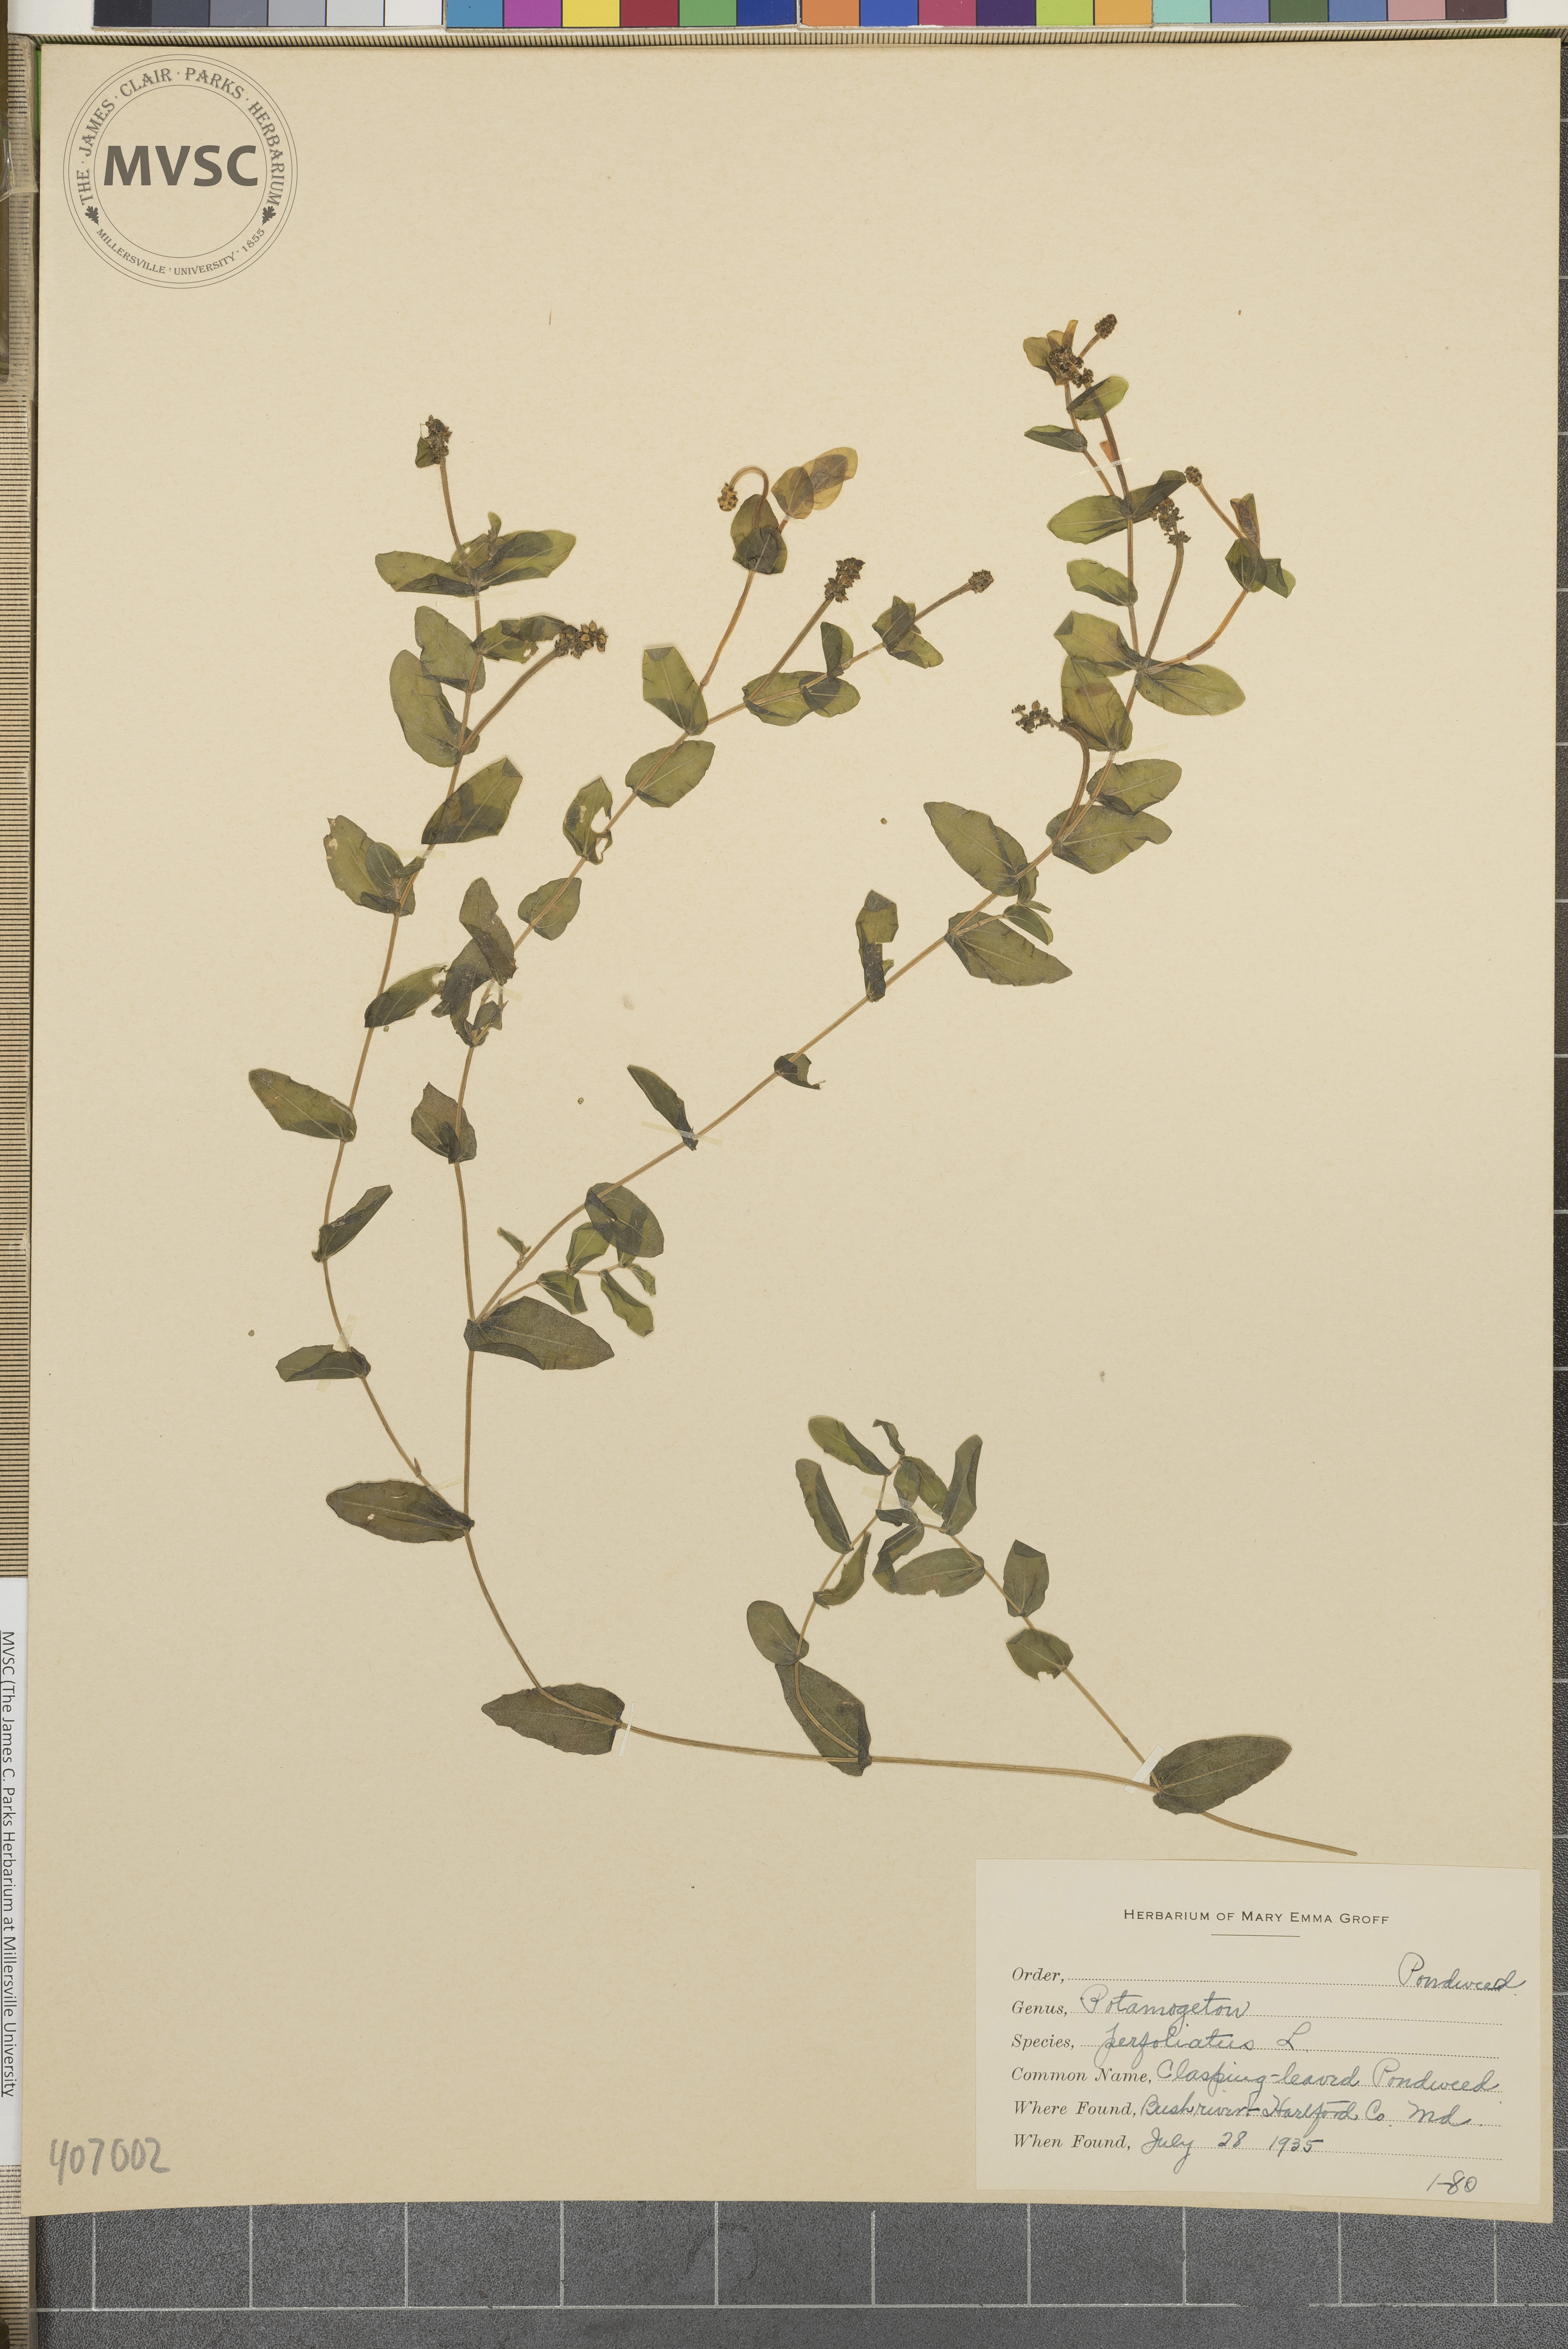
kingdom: Plantae
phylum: Tracheophyta
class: Liliopsida
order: Alismatales
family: Potamogetonaceae
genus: Potamogeton
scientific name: Potamogeton perfoliatus
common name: Perfoliate pondweed
